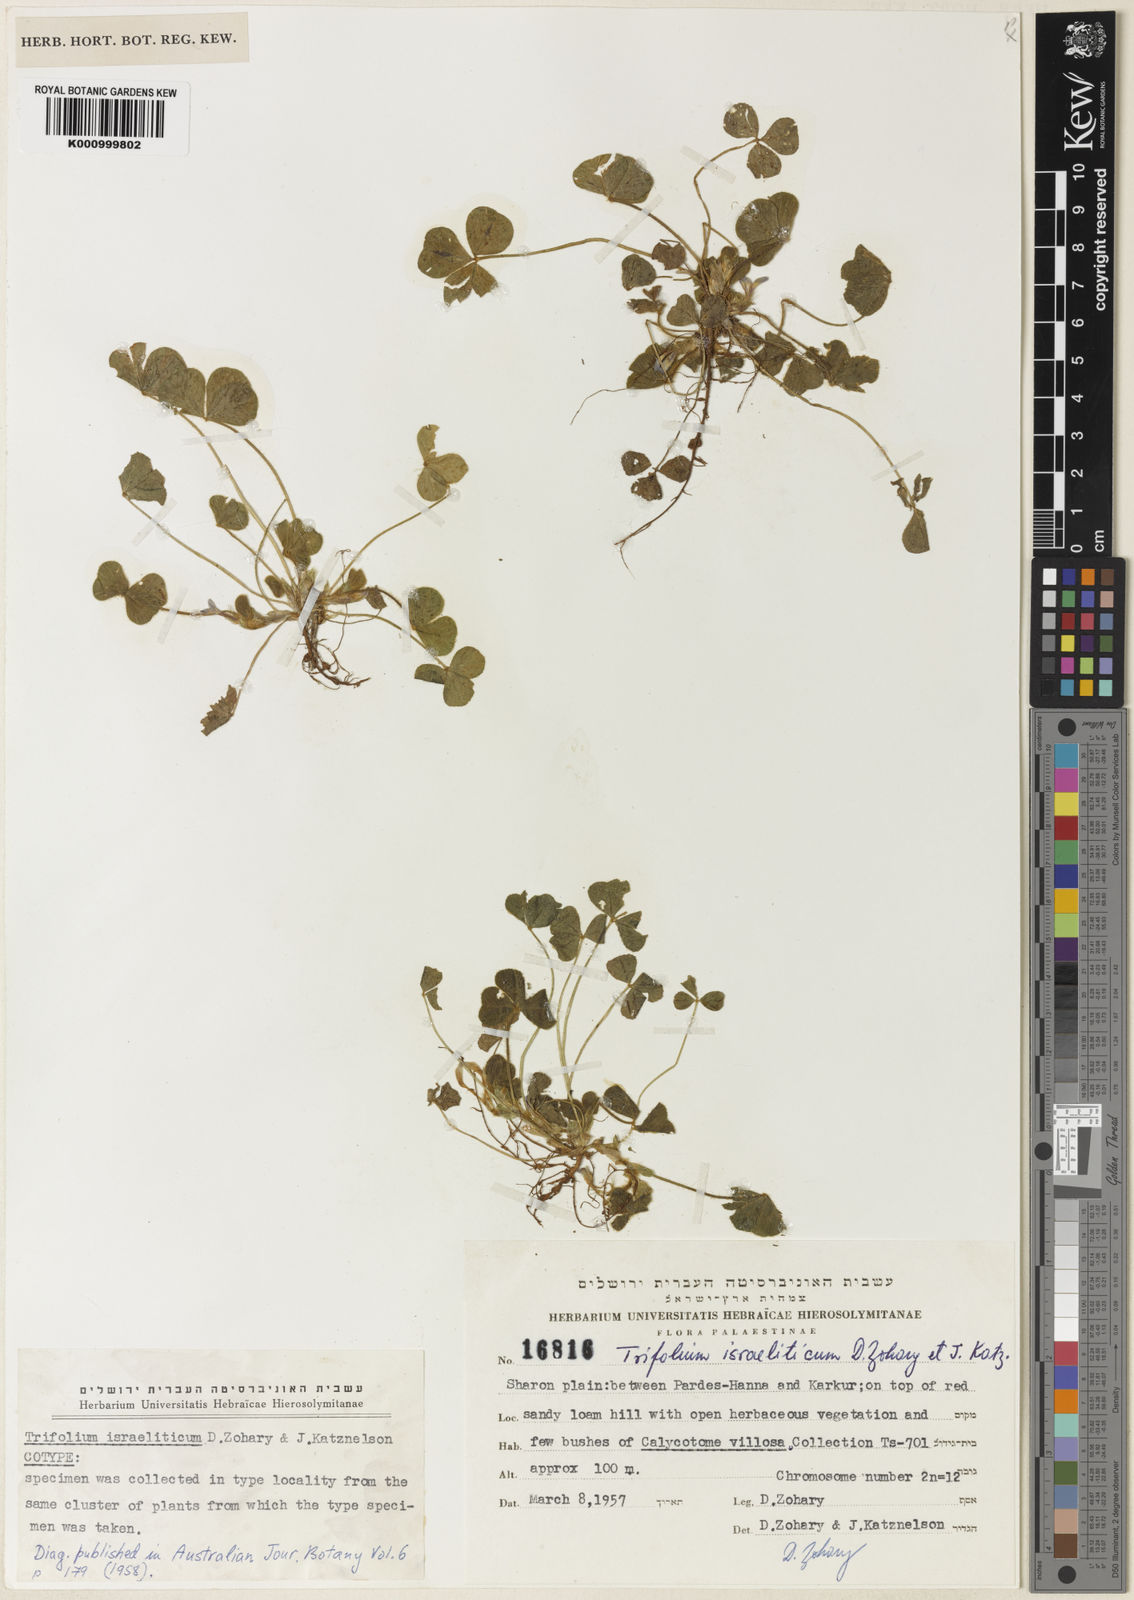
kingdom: Plantae
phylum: Tracheophyta
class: Magnoliopsida
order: Fabales
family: Fabaceae
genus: Trifolium
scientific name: Trifolium israeliticum
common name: Israel clover
